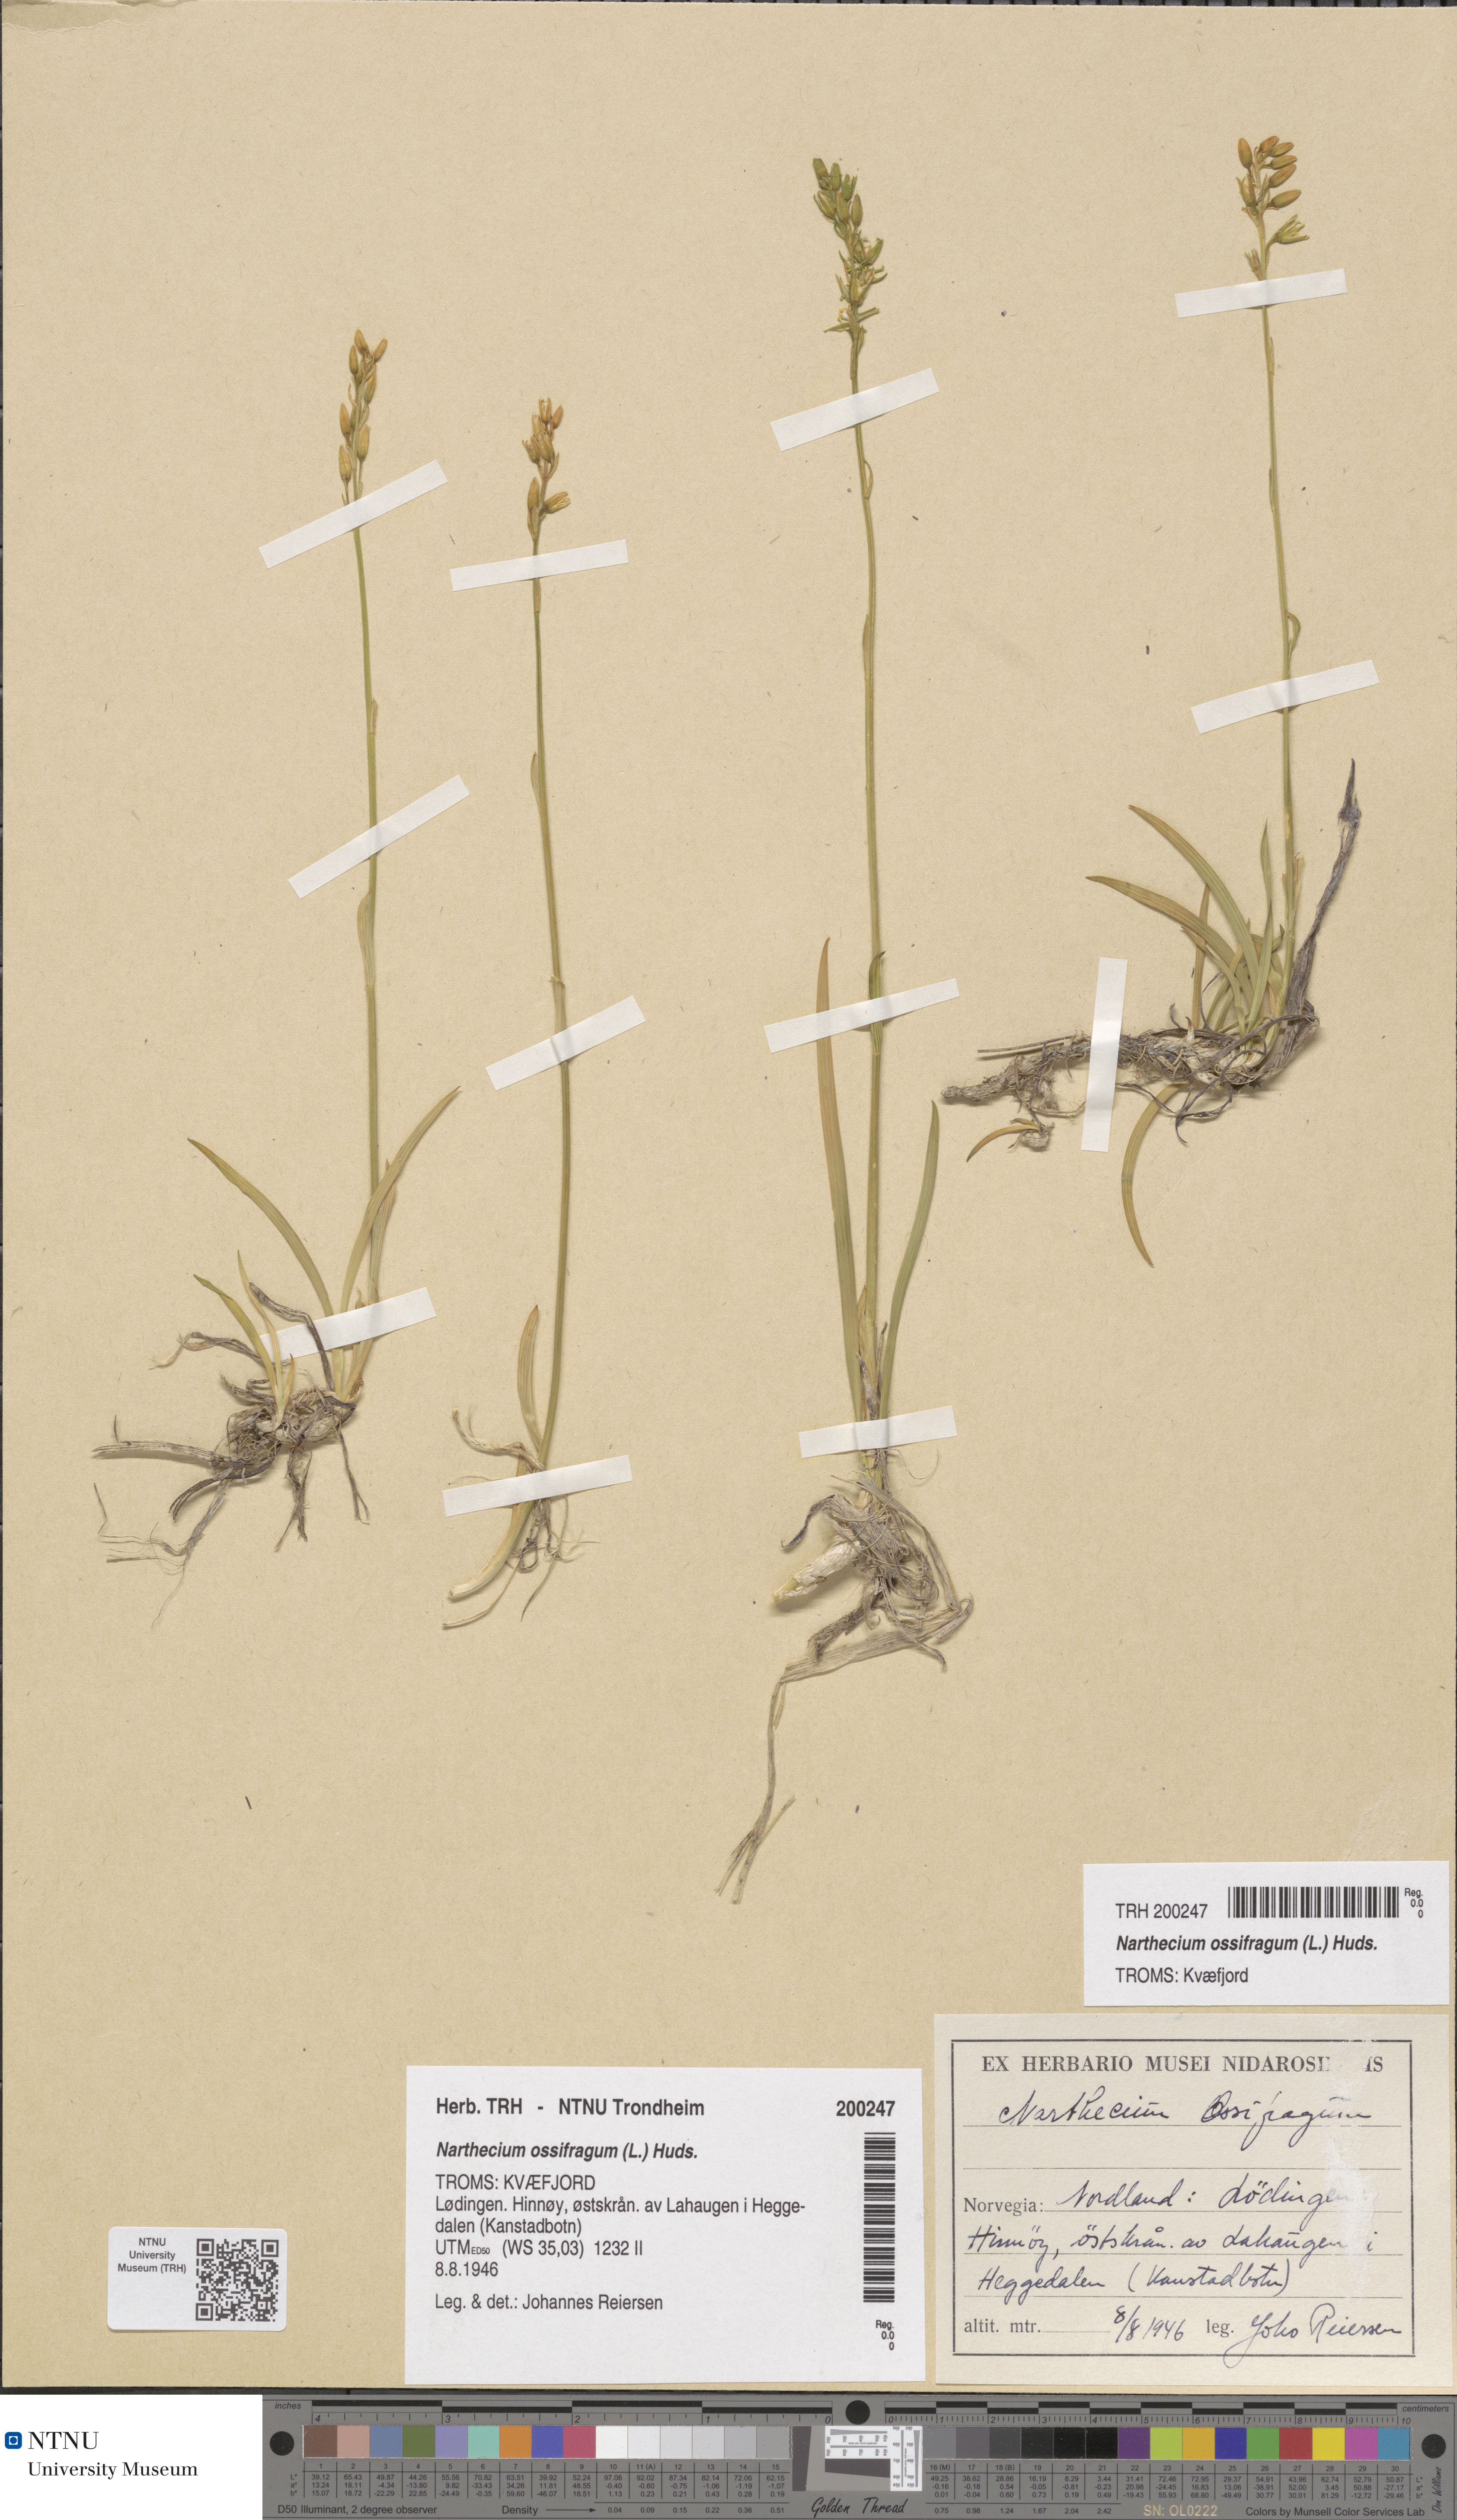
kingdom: Plantae
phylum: Tracheophyta
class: Liliopsida
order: Dioscoreales
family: Nartheciaceae
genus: Narthecium
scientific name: Narthecium ossifragum
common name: Bog asphodel
